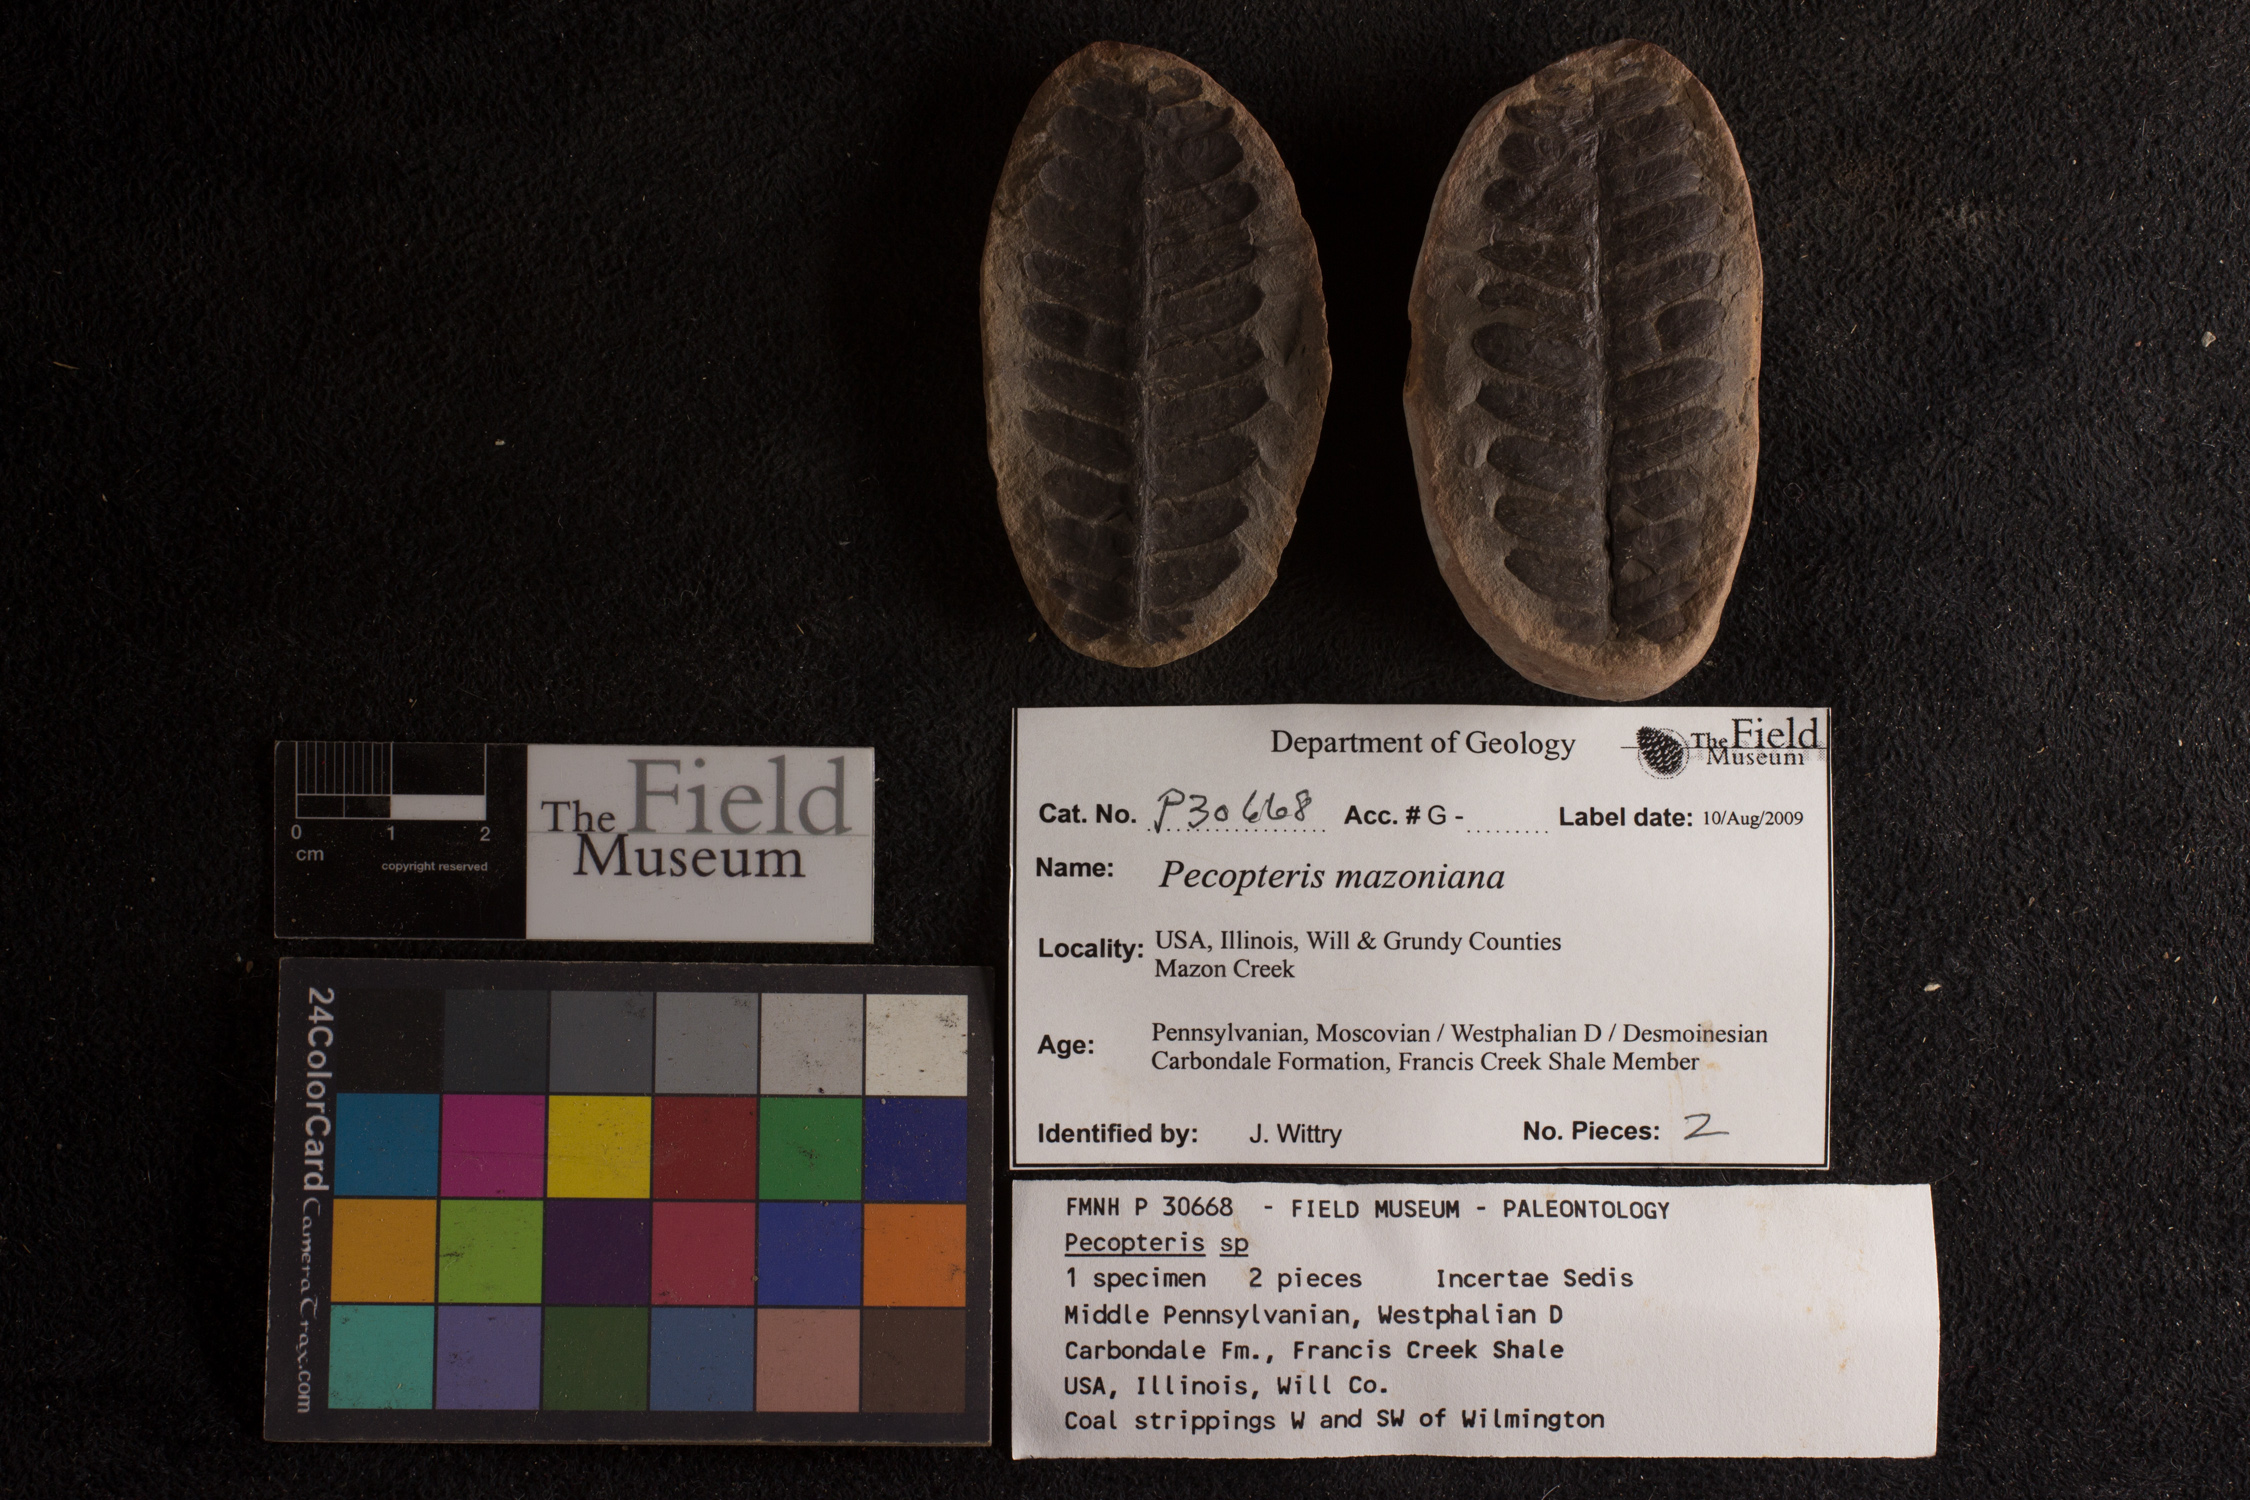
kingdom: Plantae
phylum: Tracheophyta
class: Polypodiopsida
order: Marattiales
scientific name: Marattiales
